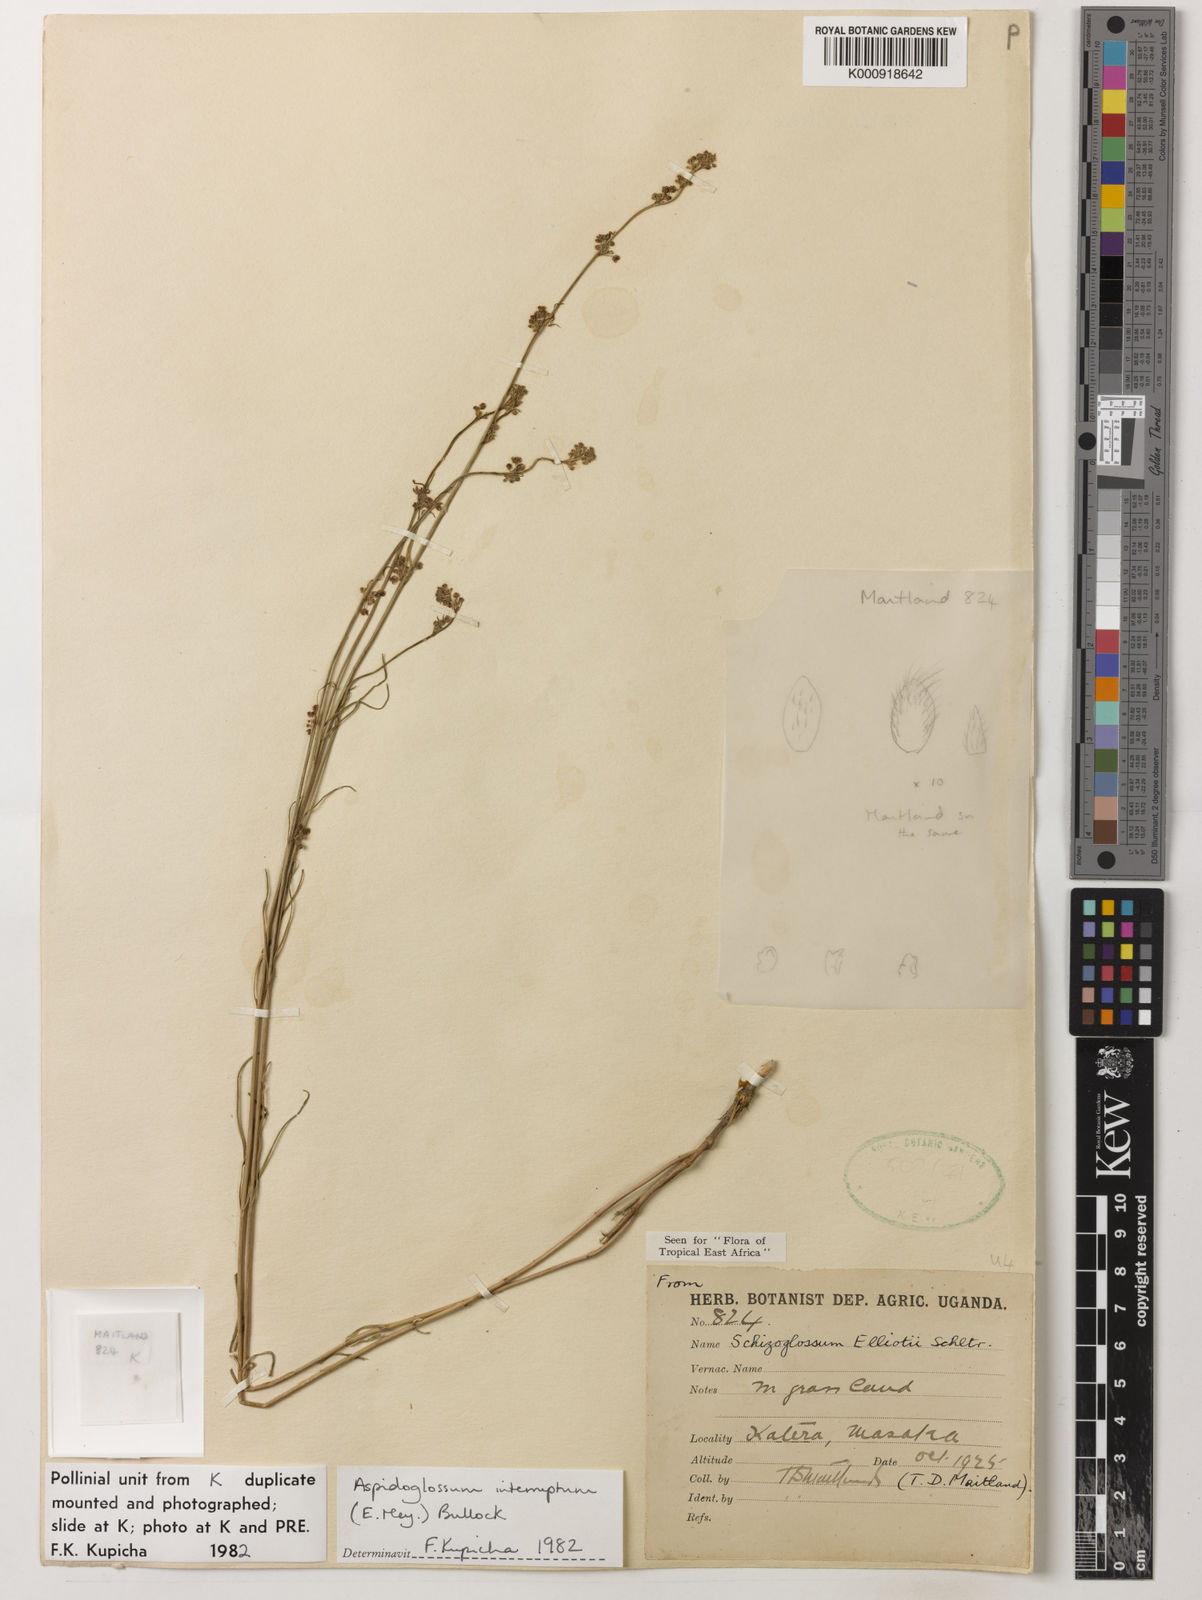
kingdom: Plantae
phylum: Tracheophyta
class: Magnoliopsida
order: Gentianales
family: Apocynaceae
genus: Aspidoglossum
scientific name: Aspidoglossum interruptum
